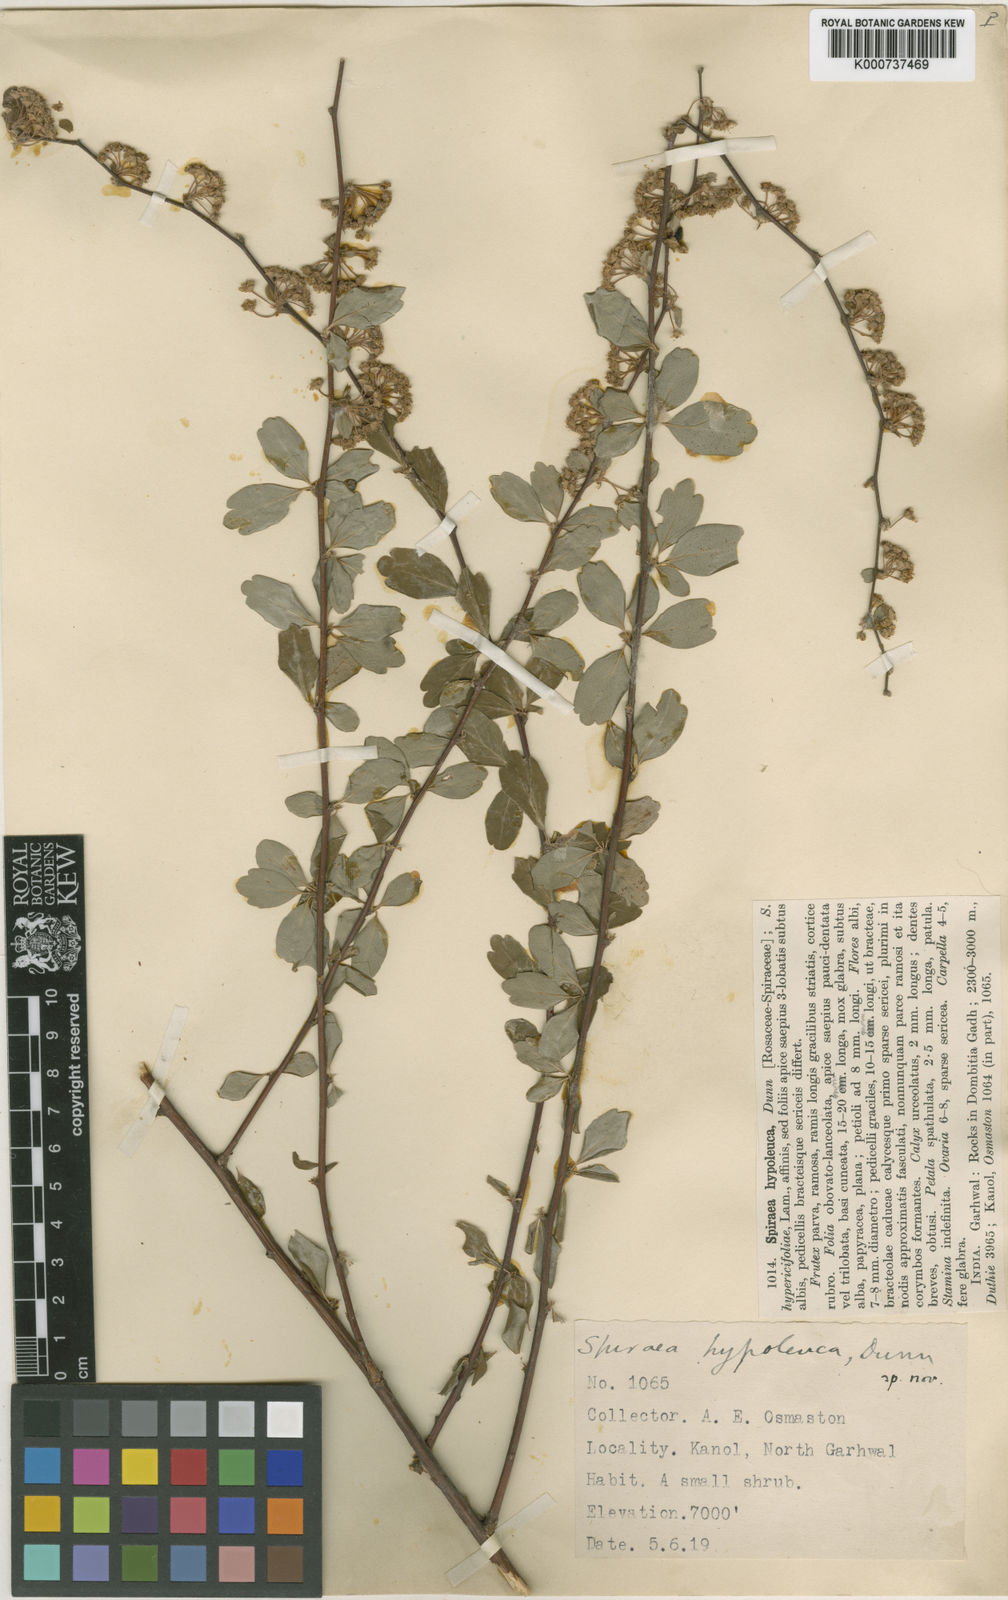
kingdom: Plantae
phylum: Tracheophyta
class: Magnoliopsida
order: Rosales
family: Rosaceae
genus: Spiraea
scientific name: Spiraea hypoleuca
